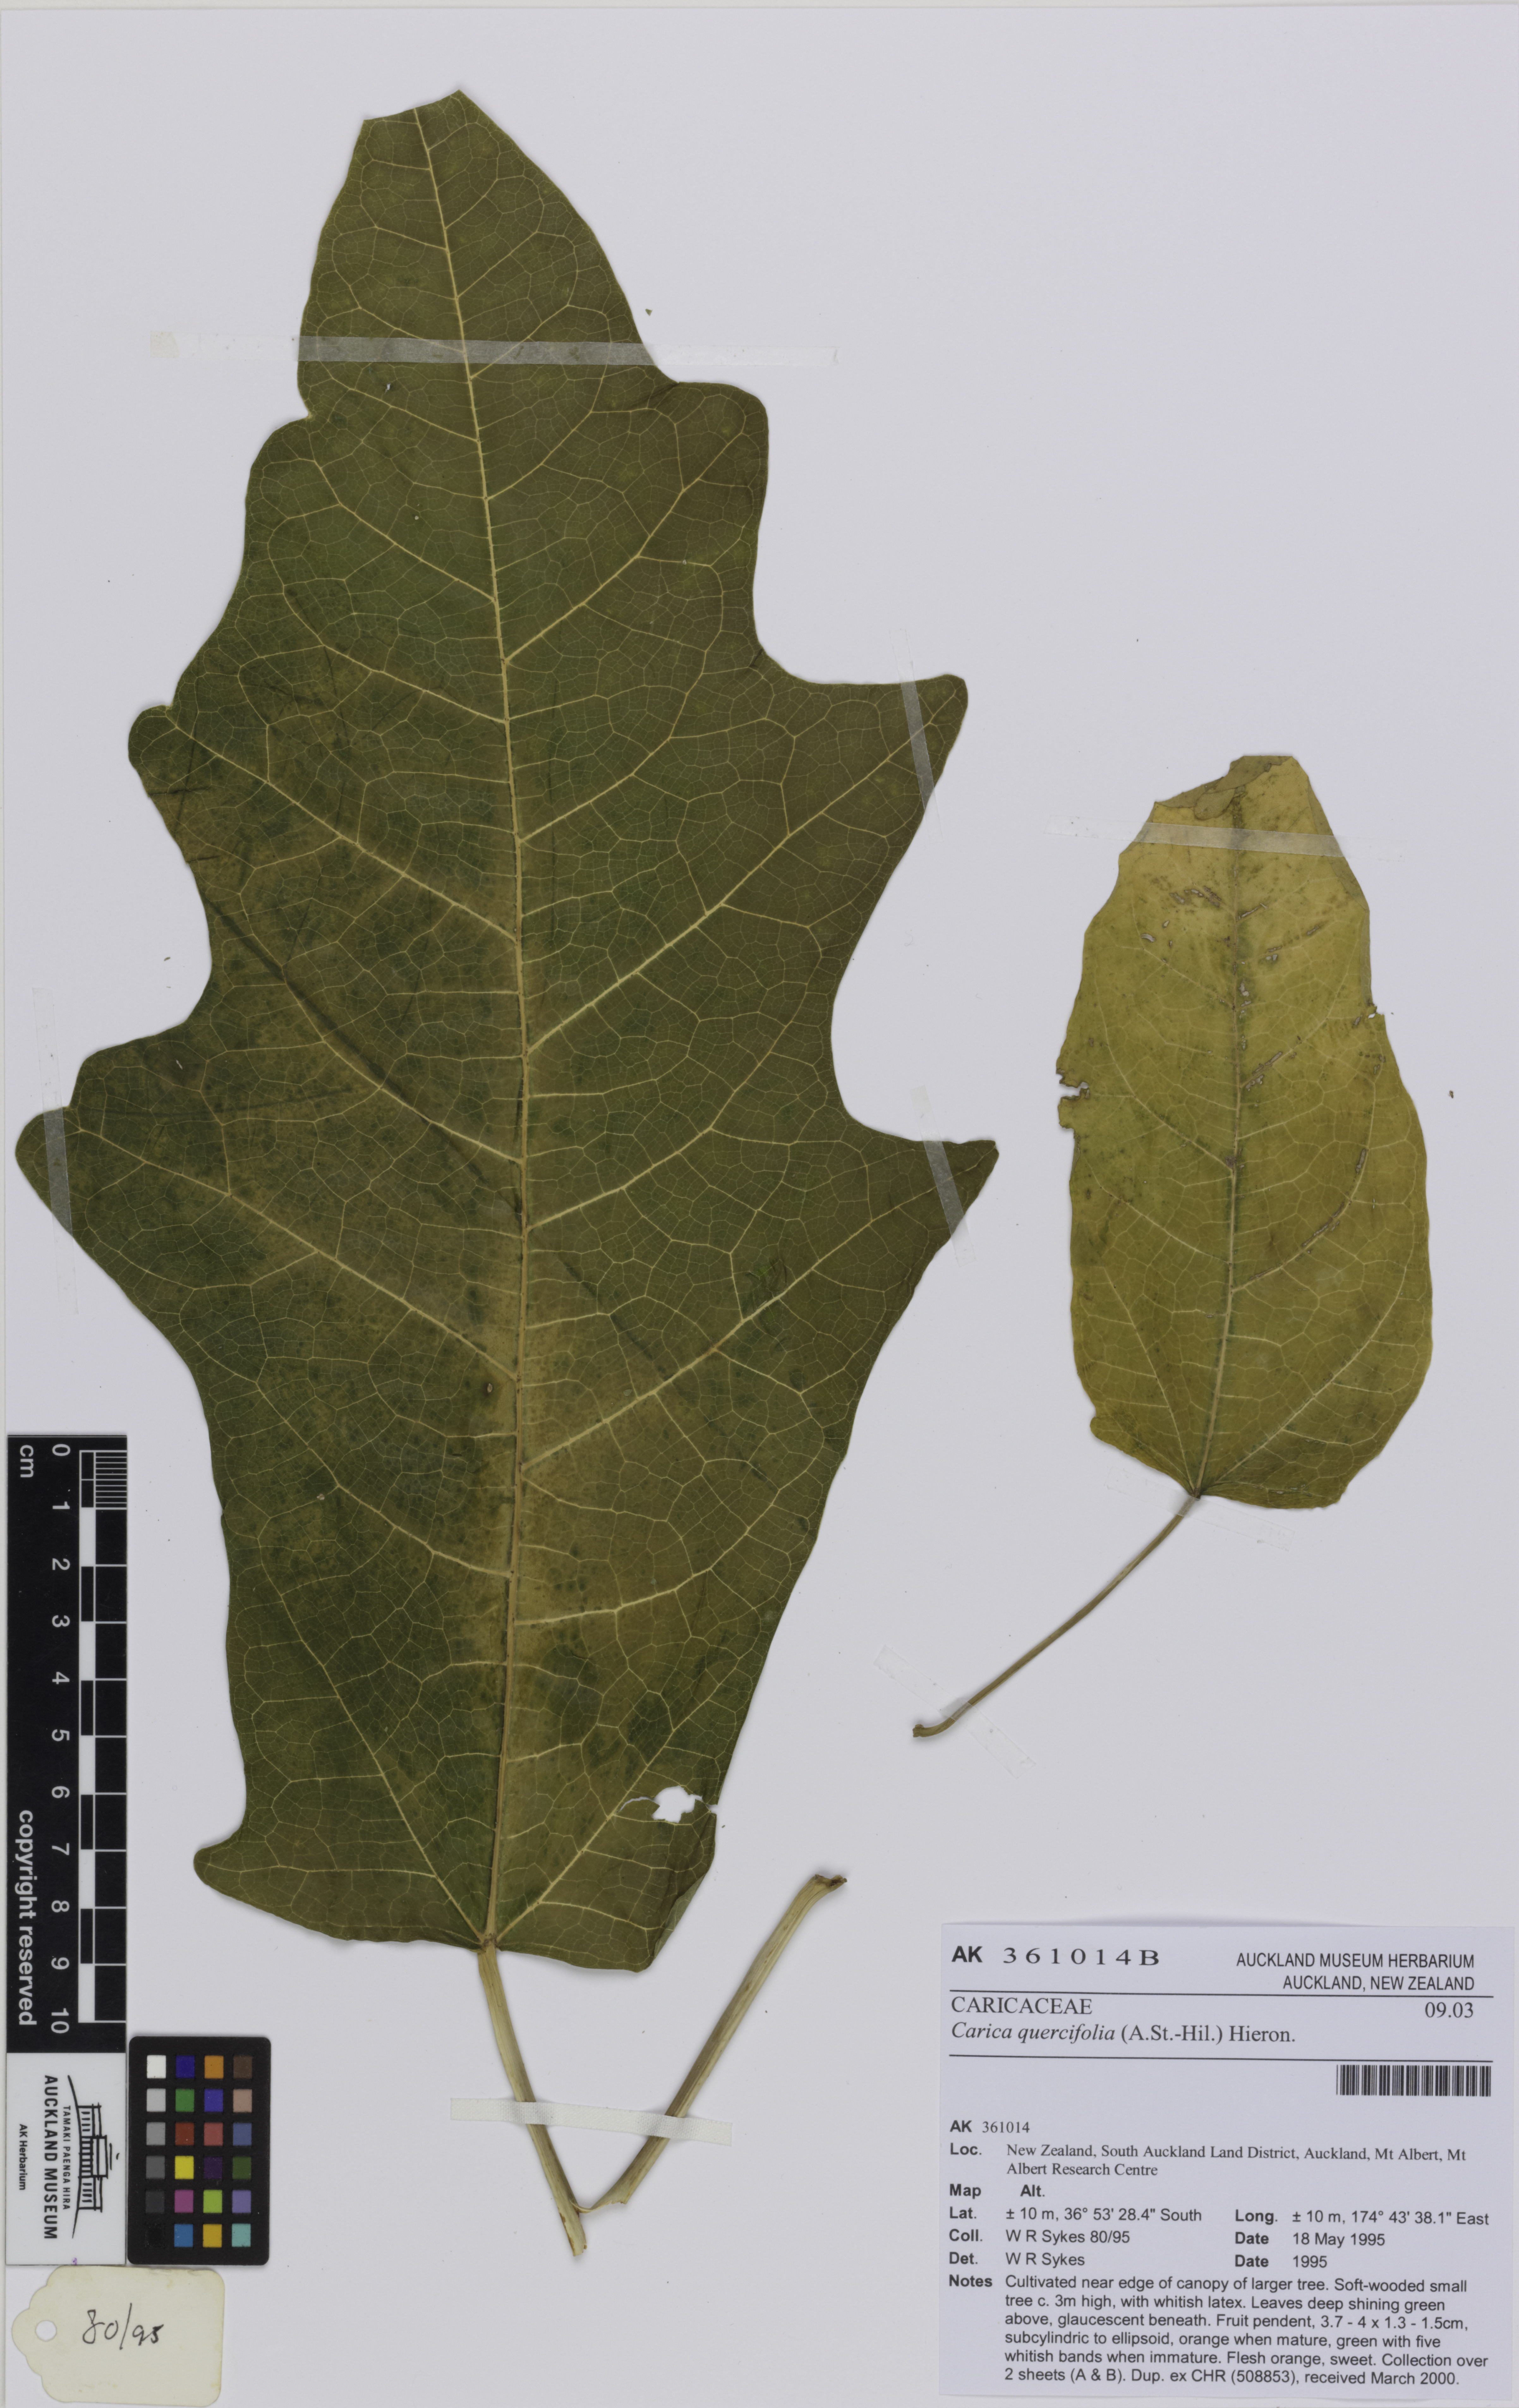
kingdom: Plantae
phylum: Tracheophyta
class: Magnoliopsida
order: Brassicales
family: Caricaceae
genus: Vasconcellea
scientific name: Vasconcellea quercifolia
